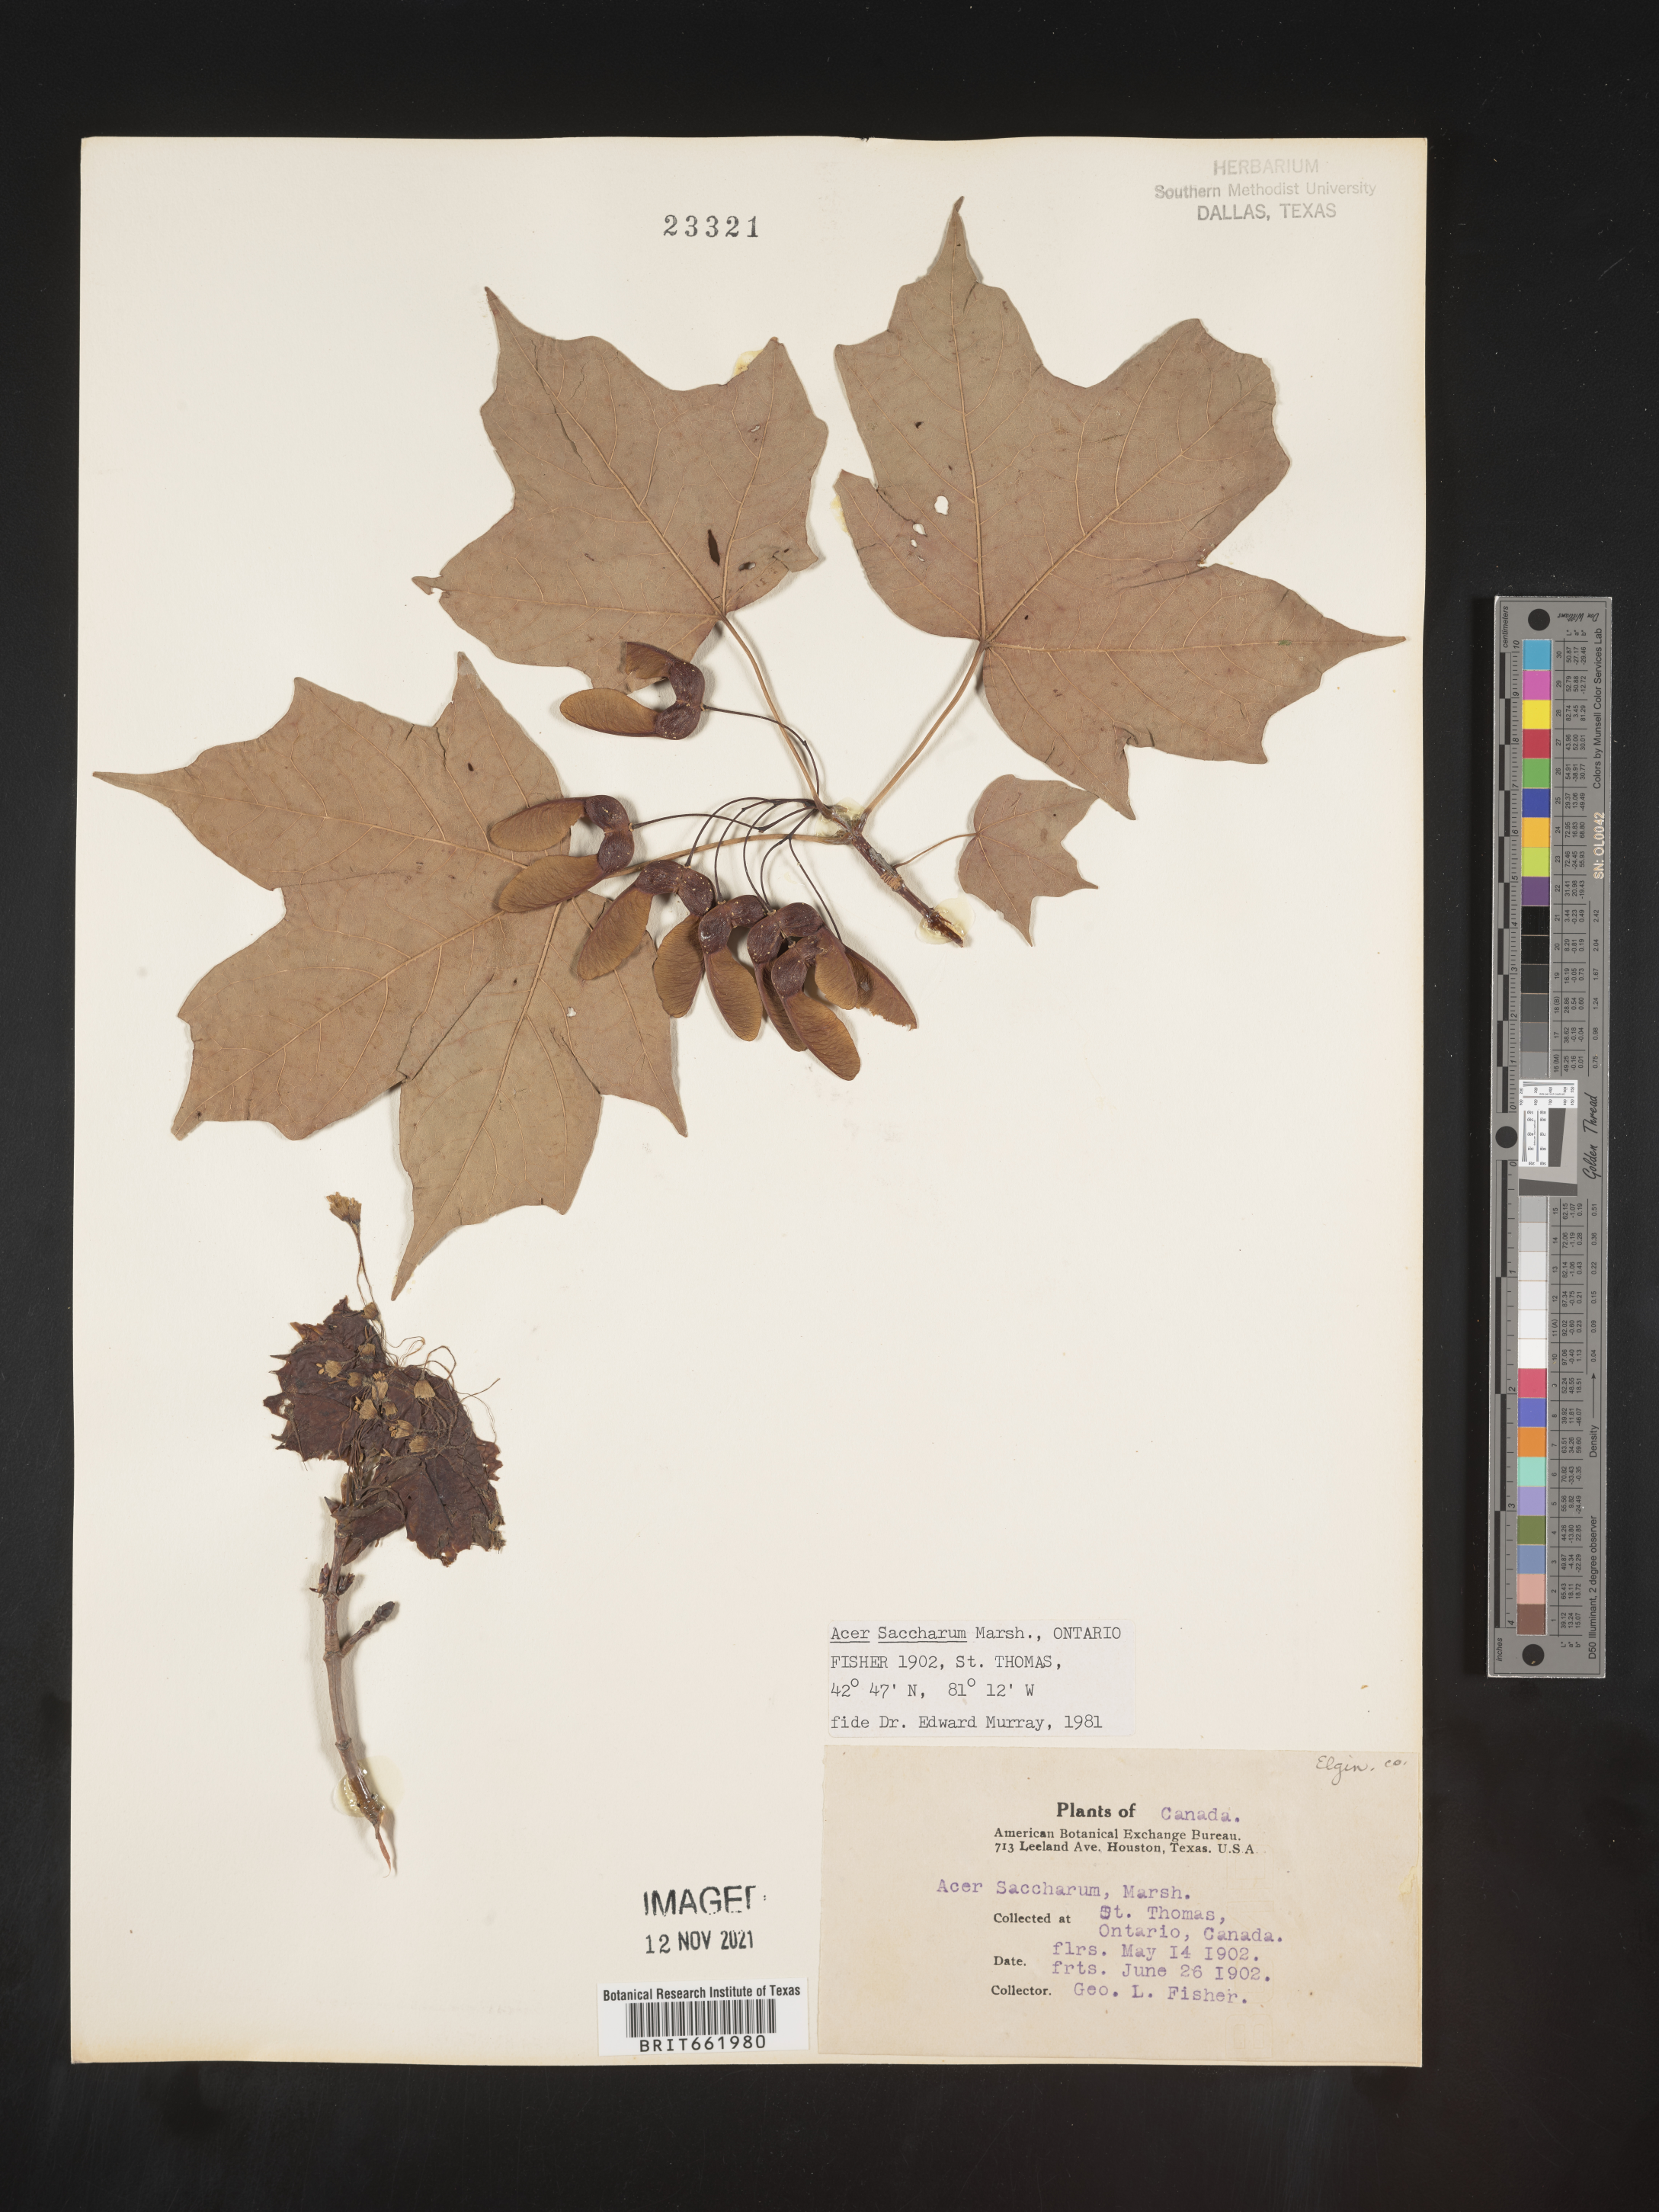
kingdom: Plantae
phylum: Tracheophyta
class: Magnoliopsida
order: Sapindales
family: Sapindaceae
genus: Acer
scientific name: Acer saccharum
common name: Sugar maple
